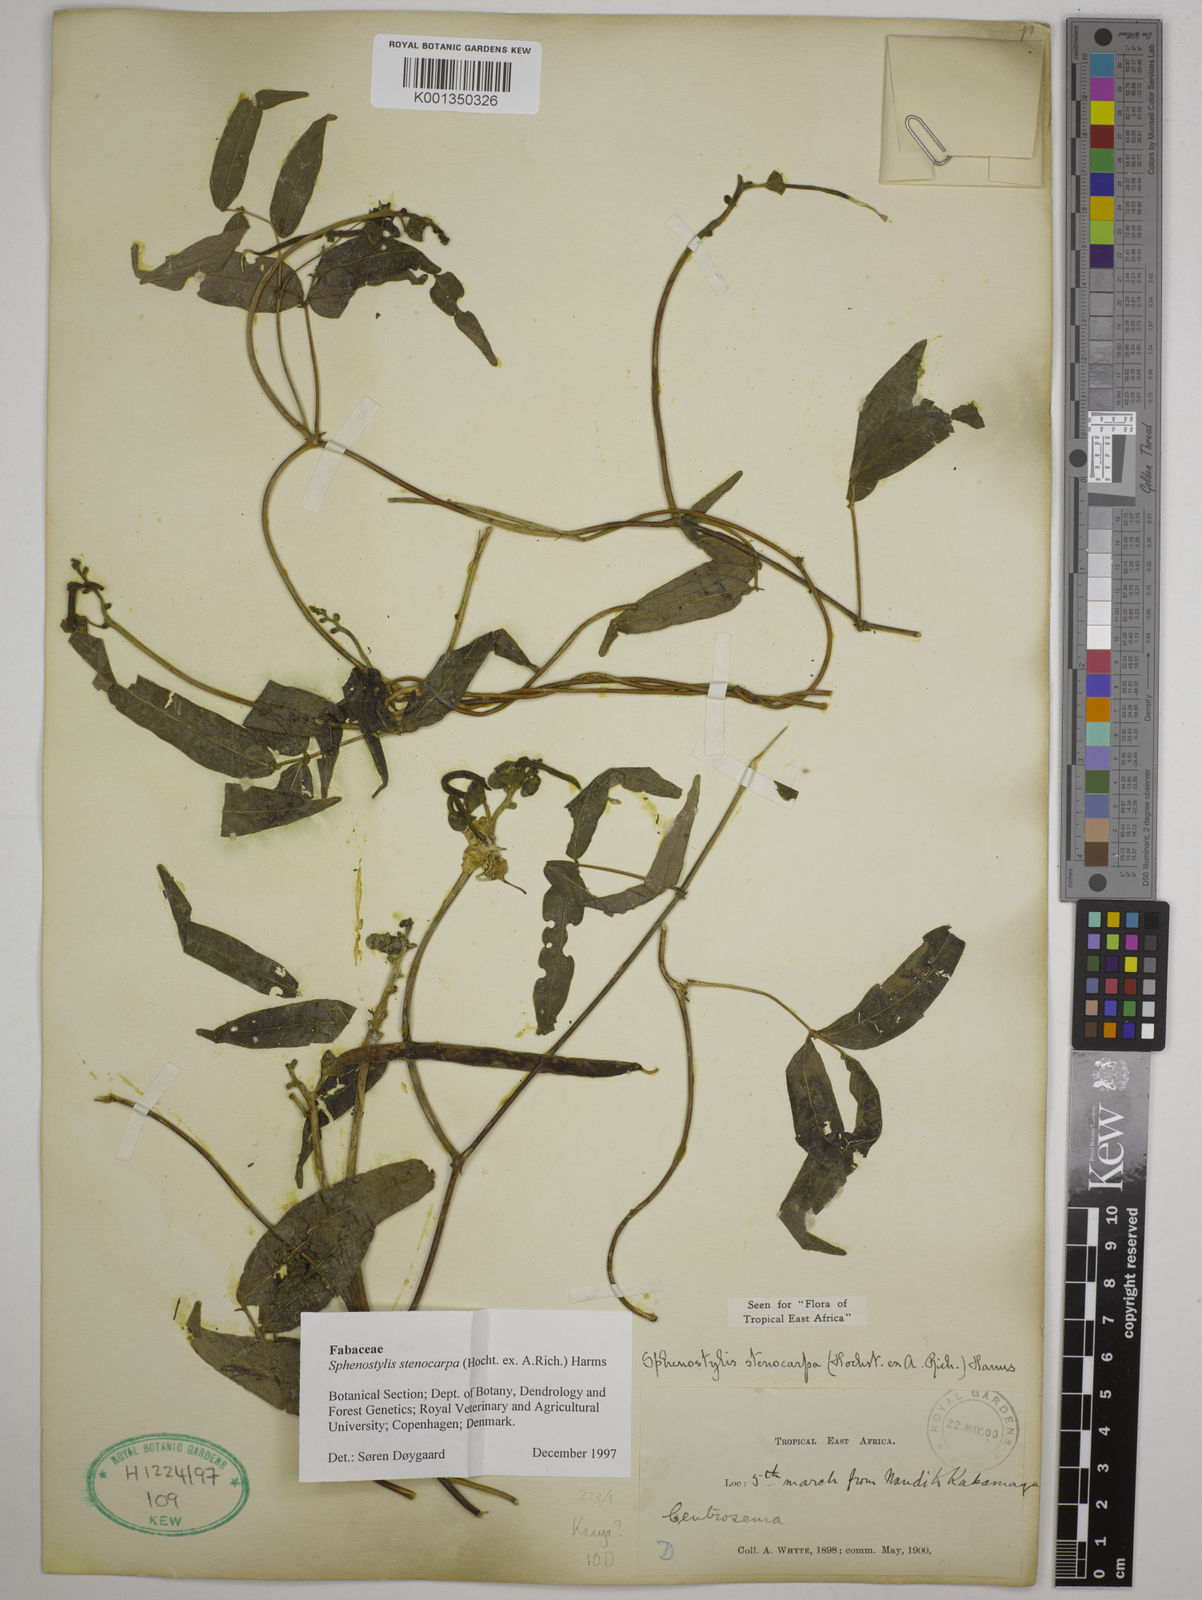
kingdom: Plantae
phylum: Tracheophyta
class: Magnoliopsida
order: Fabales
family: Fabaceae
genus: Sphenostylis
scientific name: Sphenostylis stenocarpa
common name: Yam-pea
